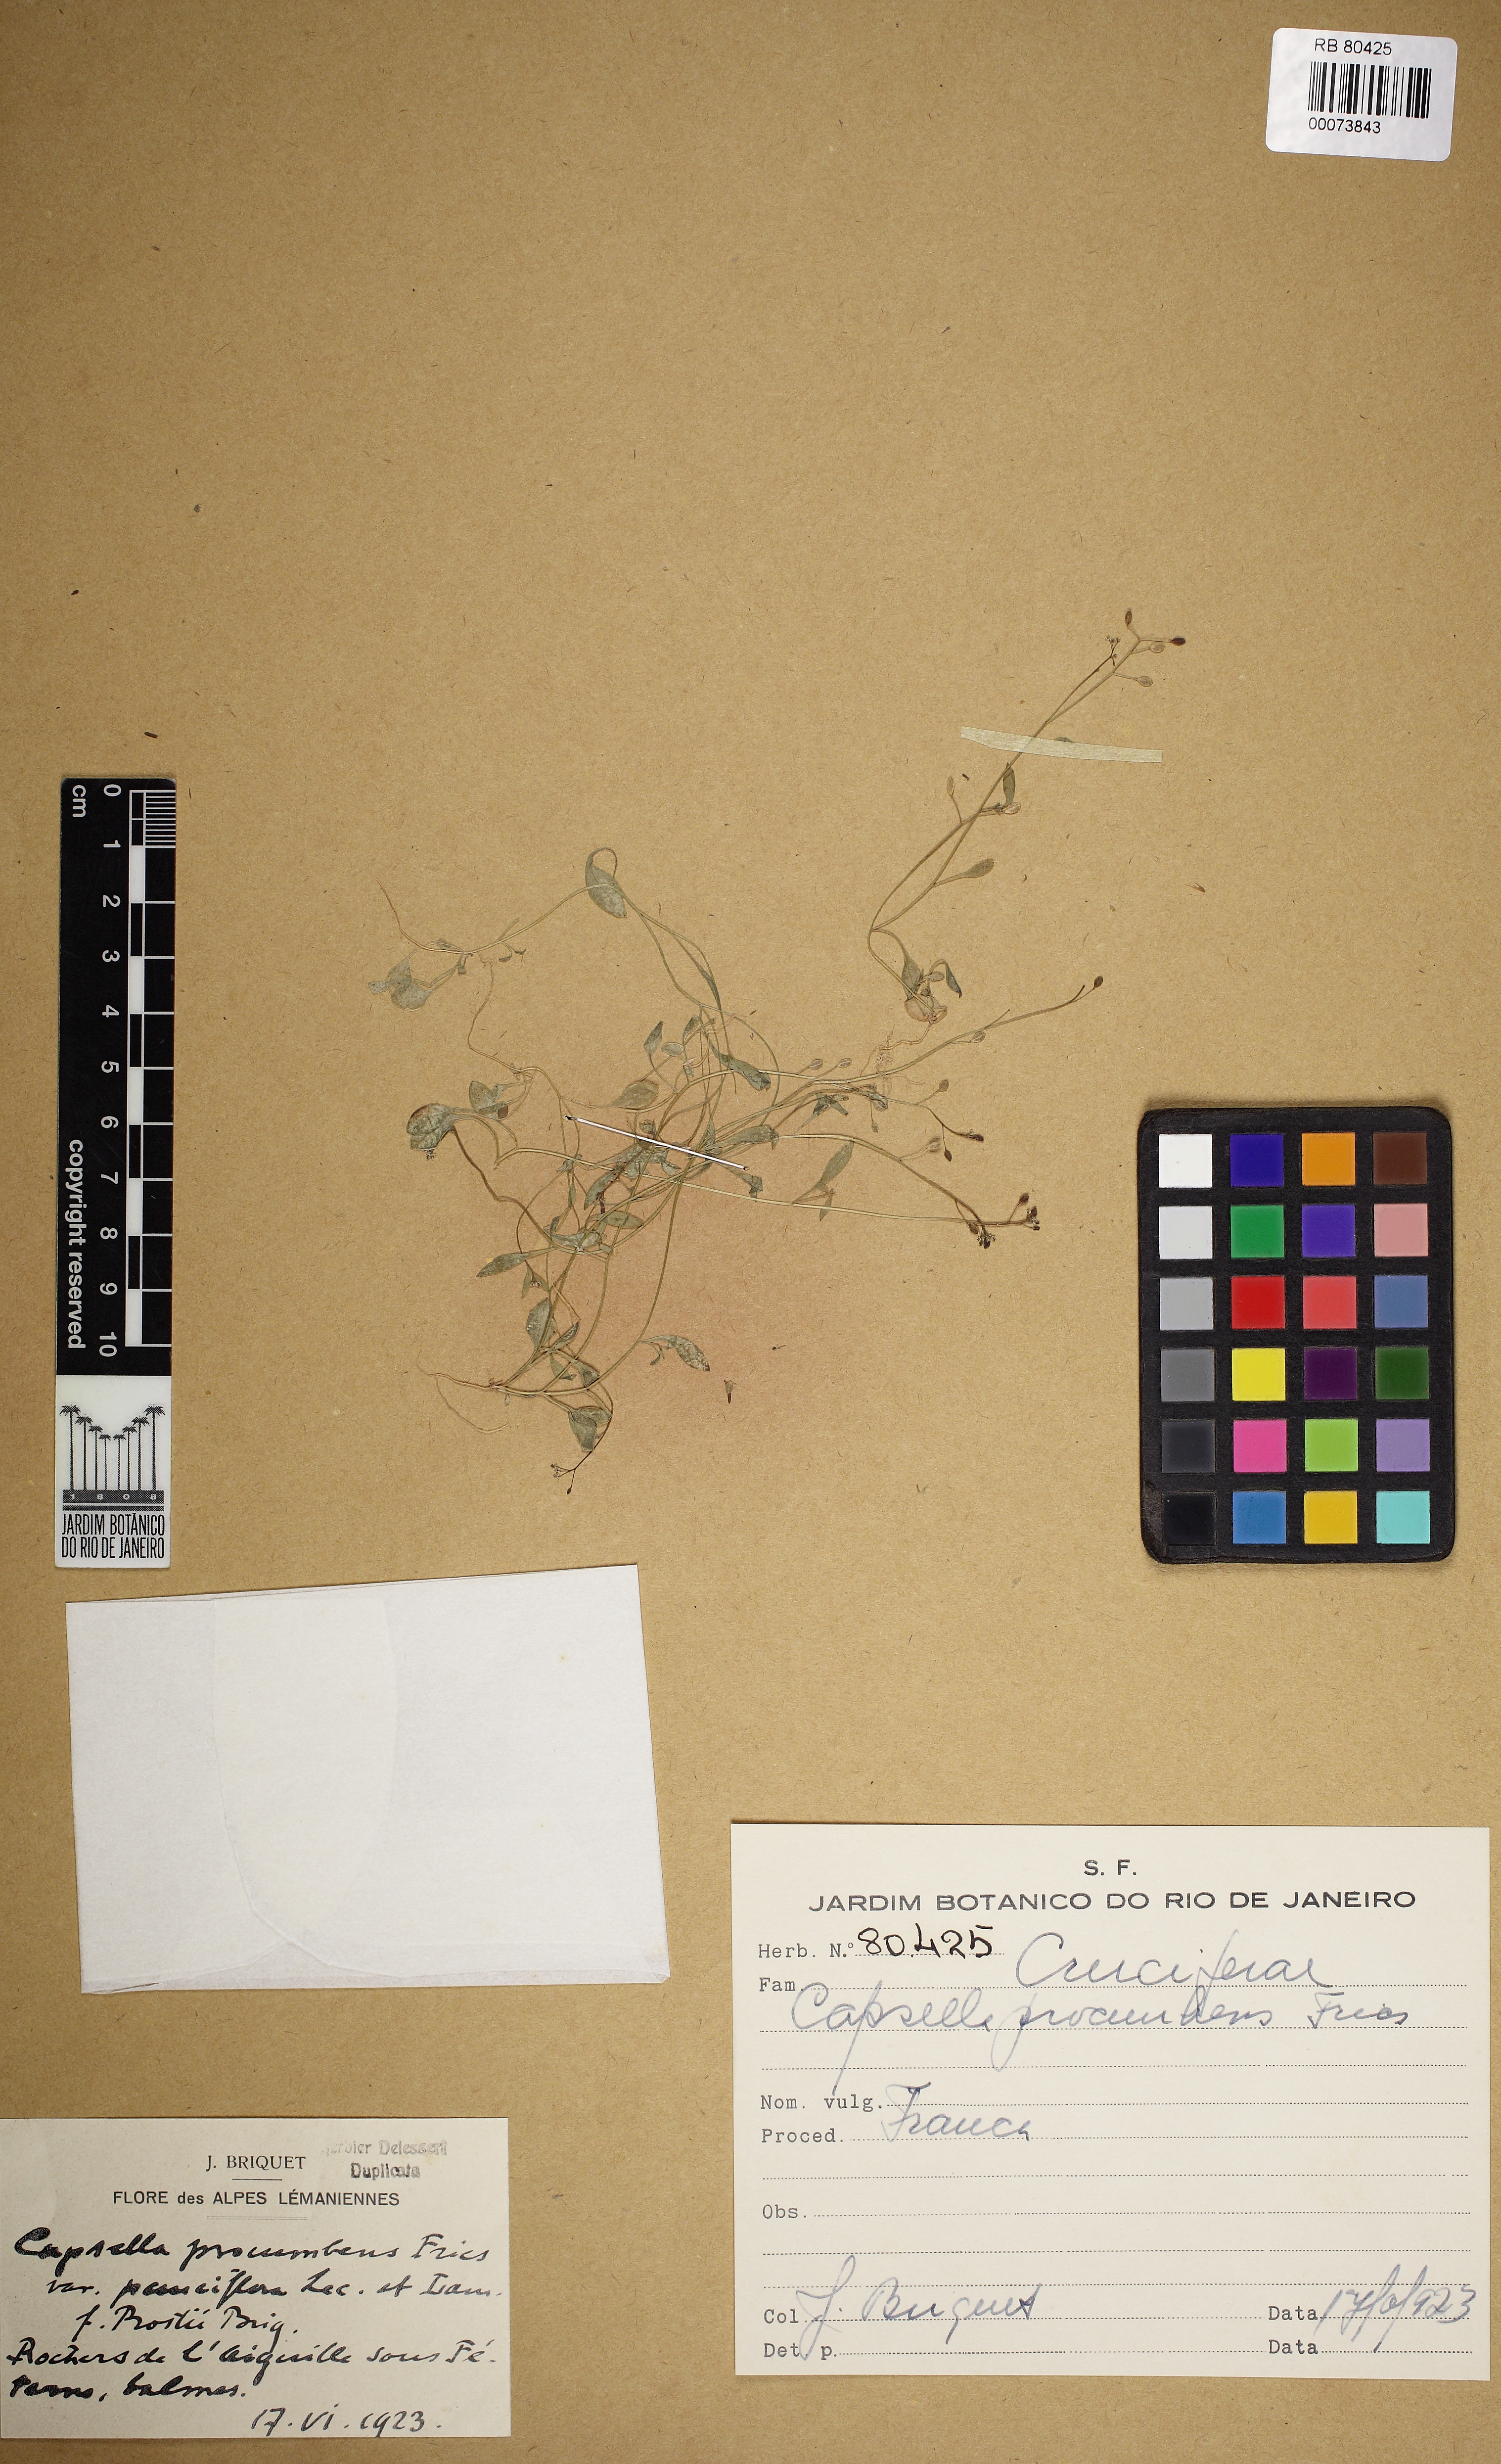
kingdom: Plantae
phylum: Tracheophyta
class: Magnoliopsida
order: Brassicales
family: Brassicaceae
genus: Hornungia
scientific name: Hornungia procumbens
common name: Oval purse
